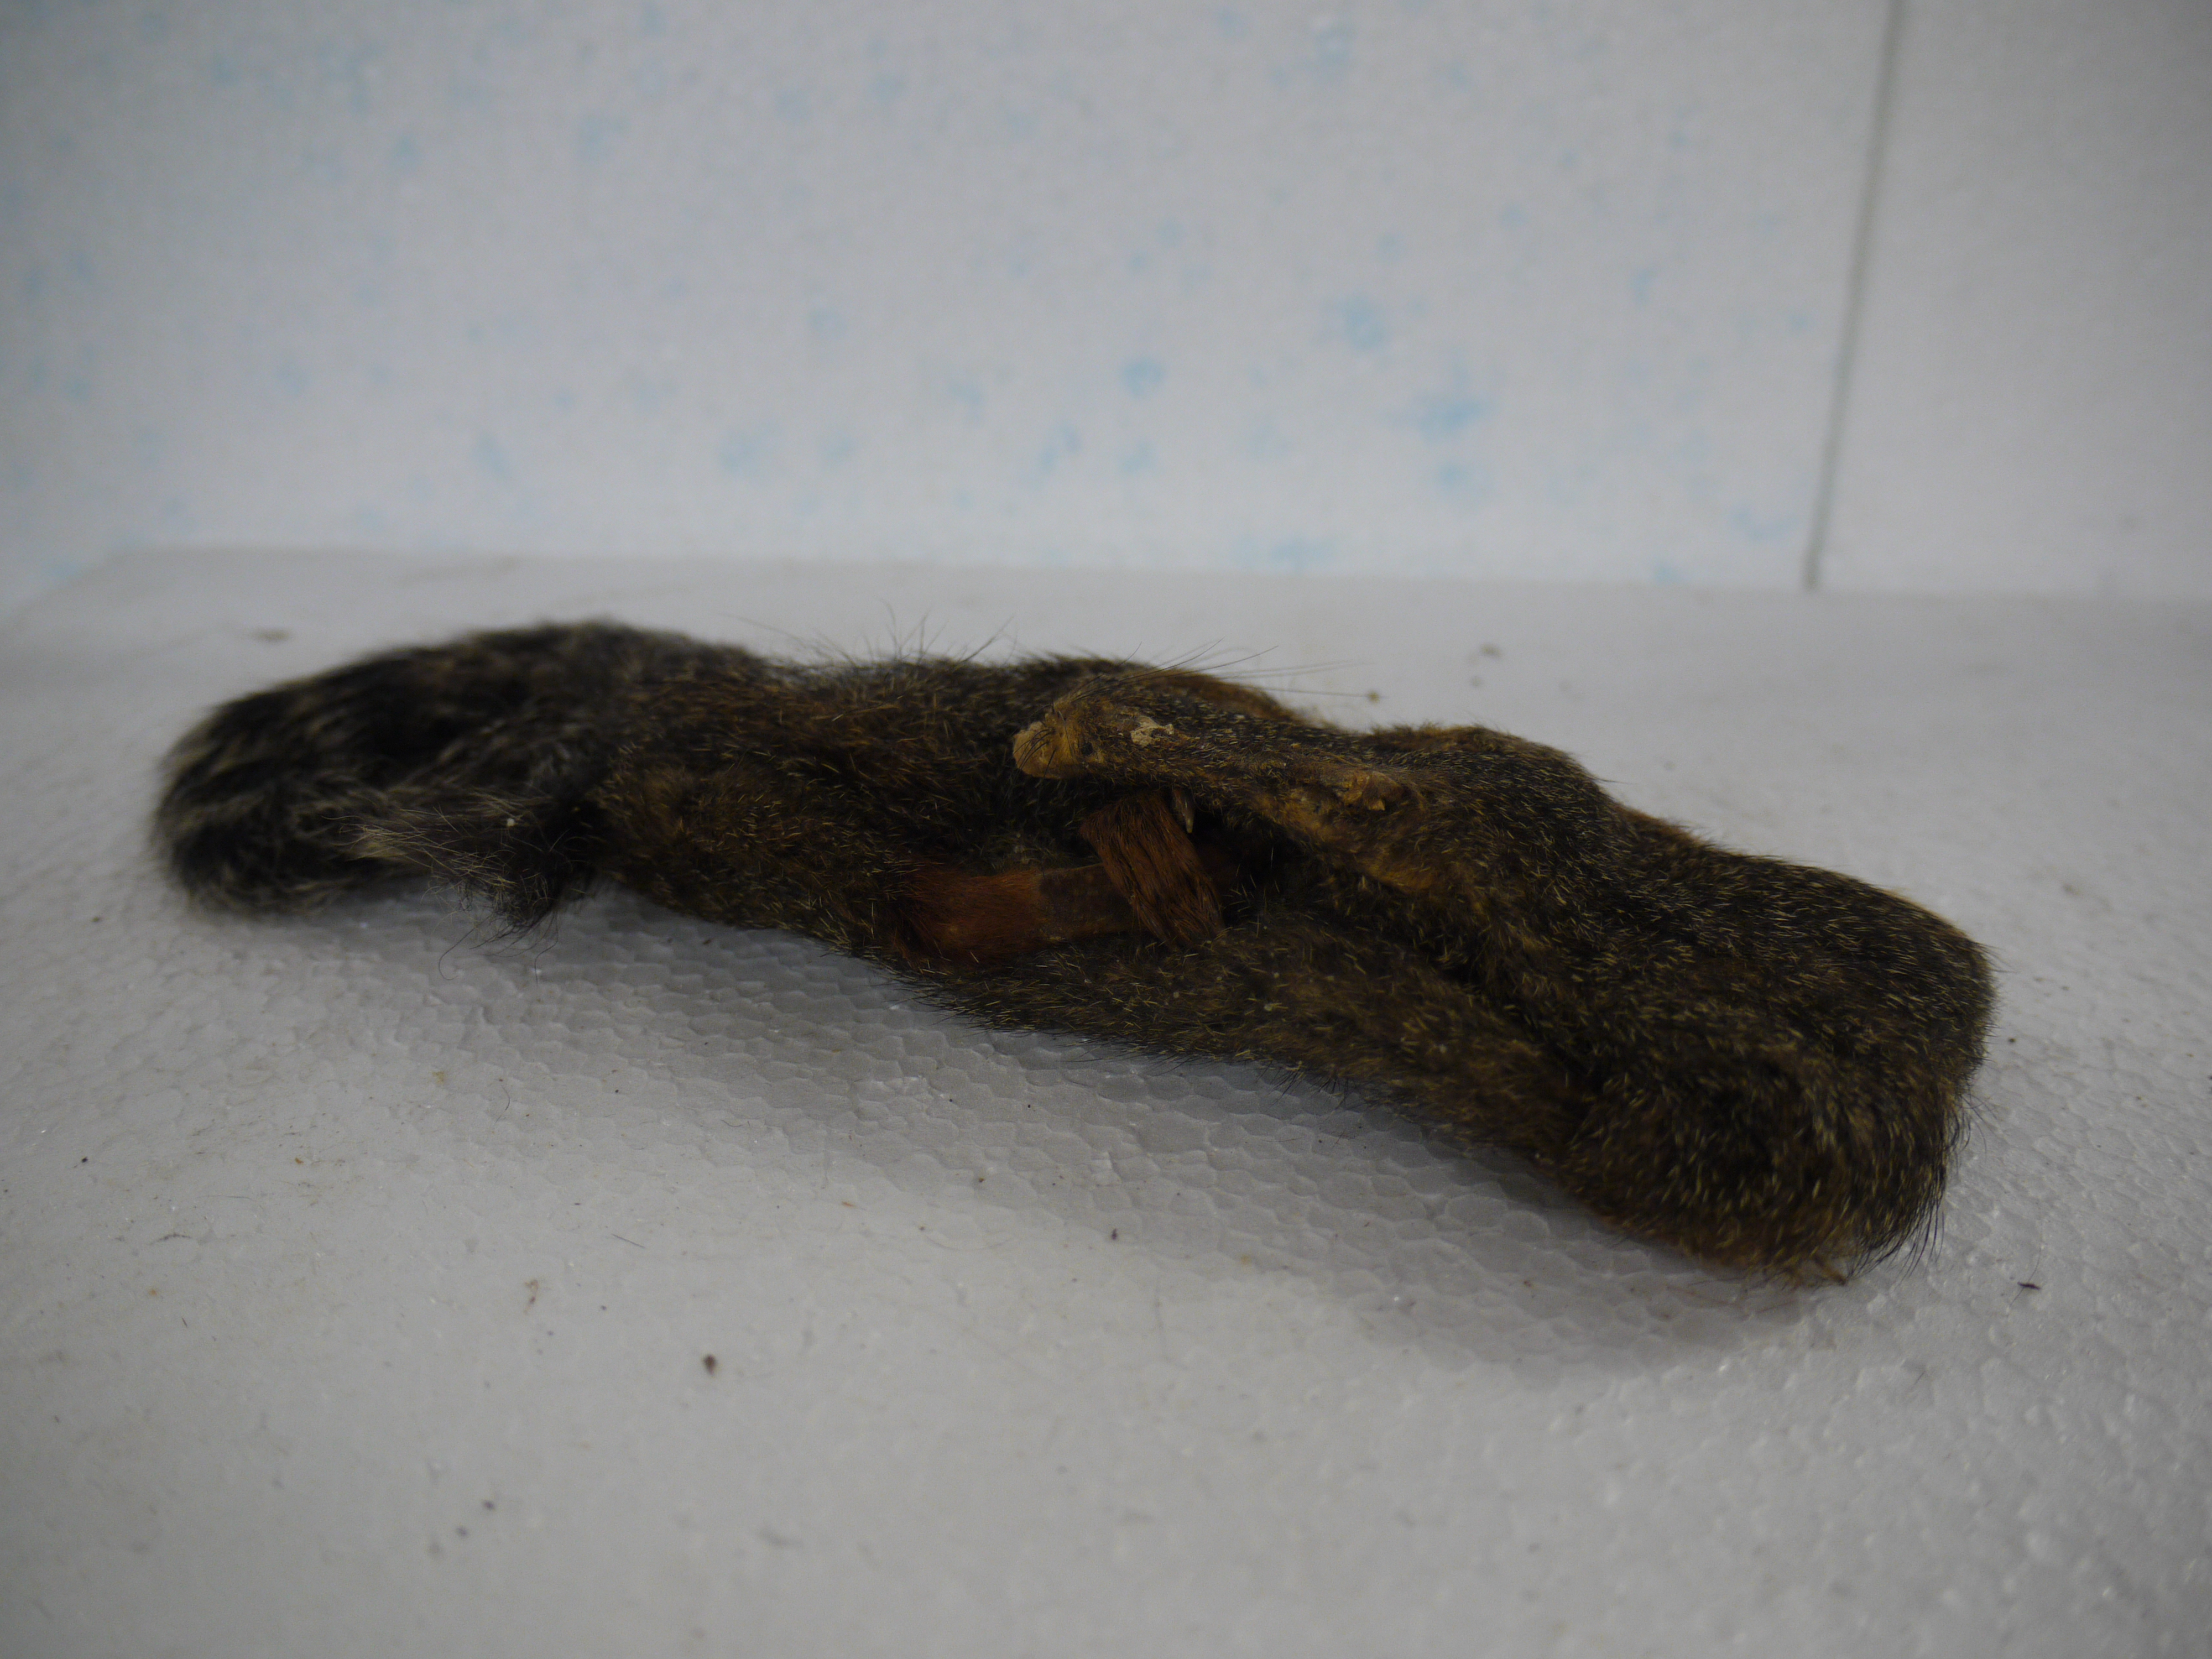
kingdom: Animalia
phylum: Chordata
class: Mammalia
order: Rodentia
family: Sciuridae
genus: Heliosciurus
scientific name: Heliosciurus rufobrachium
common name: Red-legged sun squirrel
